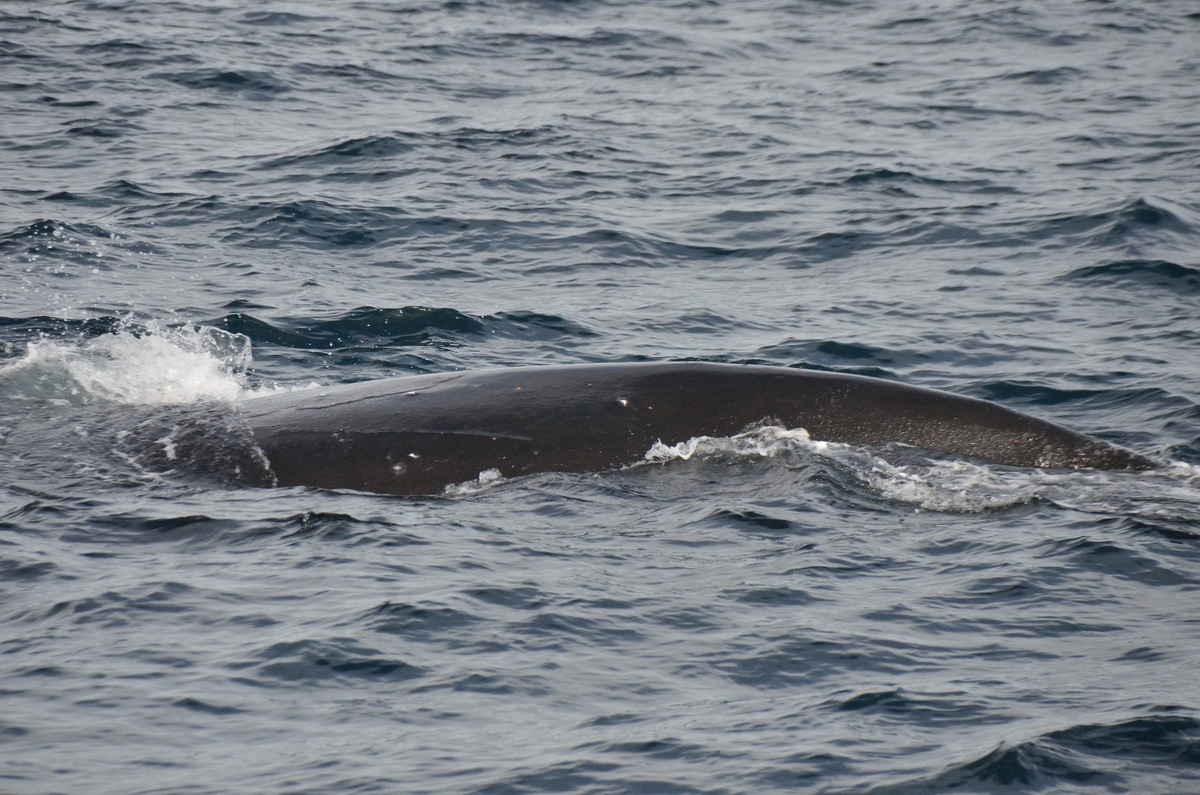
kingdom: Animalia
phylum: Chordata
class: Mammalia
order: Cetacea
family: Balaenidae
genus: Eubalaena
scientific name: Eubalaena japonica
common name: North Pacific Right Whale
